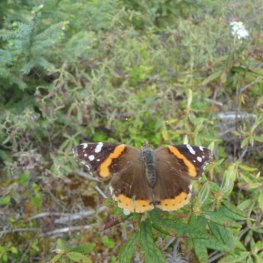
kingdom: Animalia
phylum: Arthropoda
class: Insecta
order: Lepidoptera
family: Nymphalidae
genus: Vanessa
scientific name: Vanessa atalanta
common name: Red Admiral
